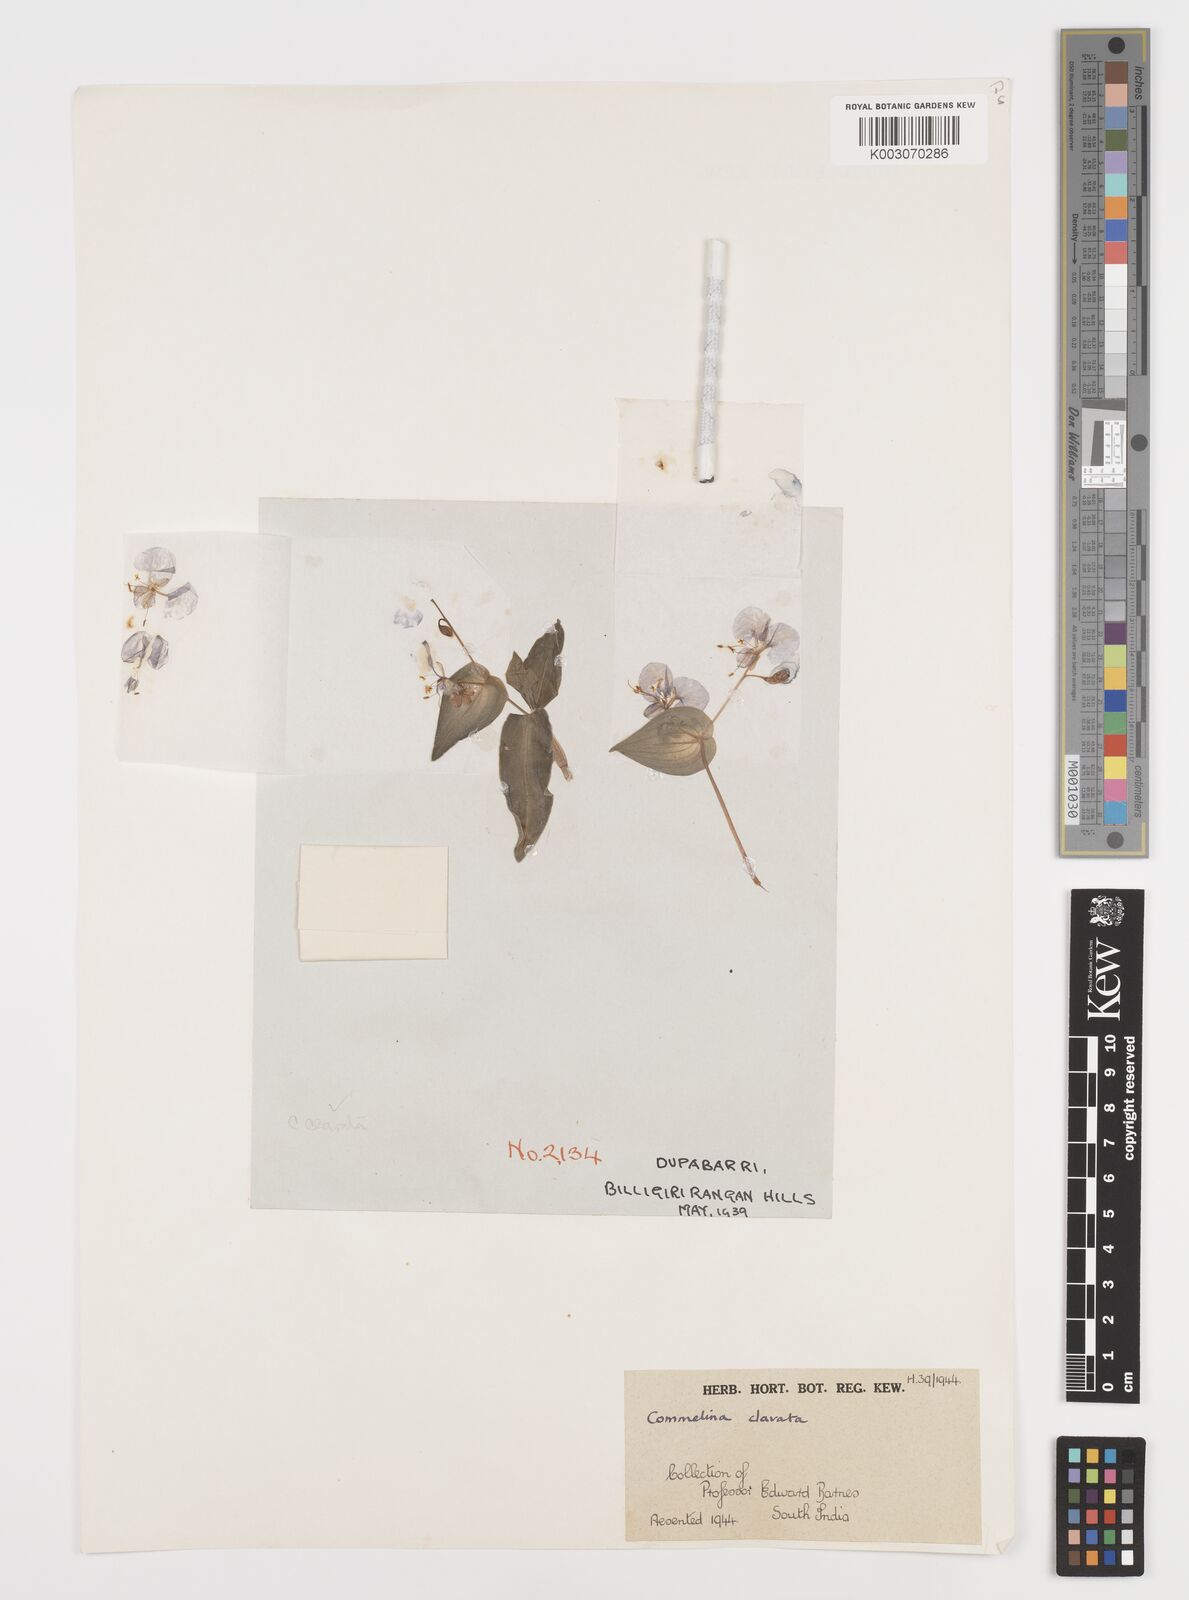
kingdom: Plantae
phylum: Tracheophyta
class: Liliopsida
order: Commelinales
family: Commelinaceae
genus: Commelina
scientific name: Commelina clavata
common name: Willow leaved dayflower
